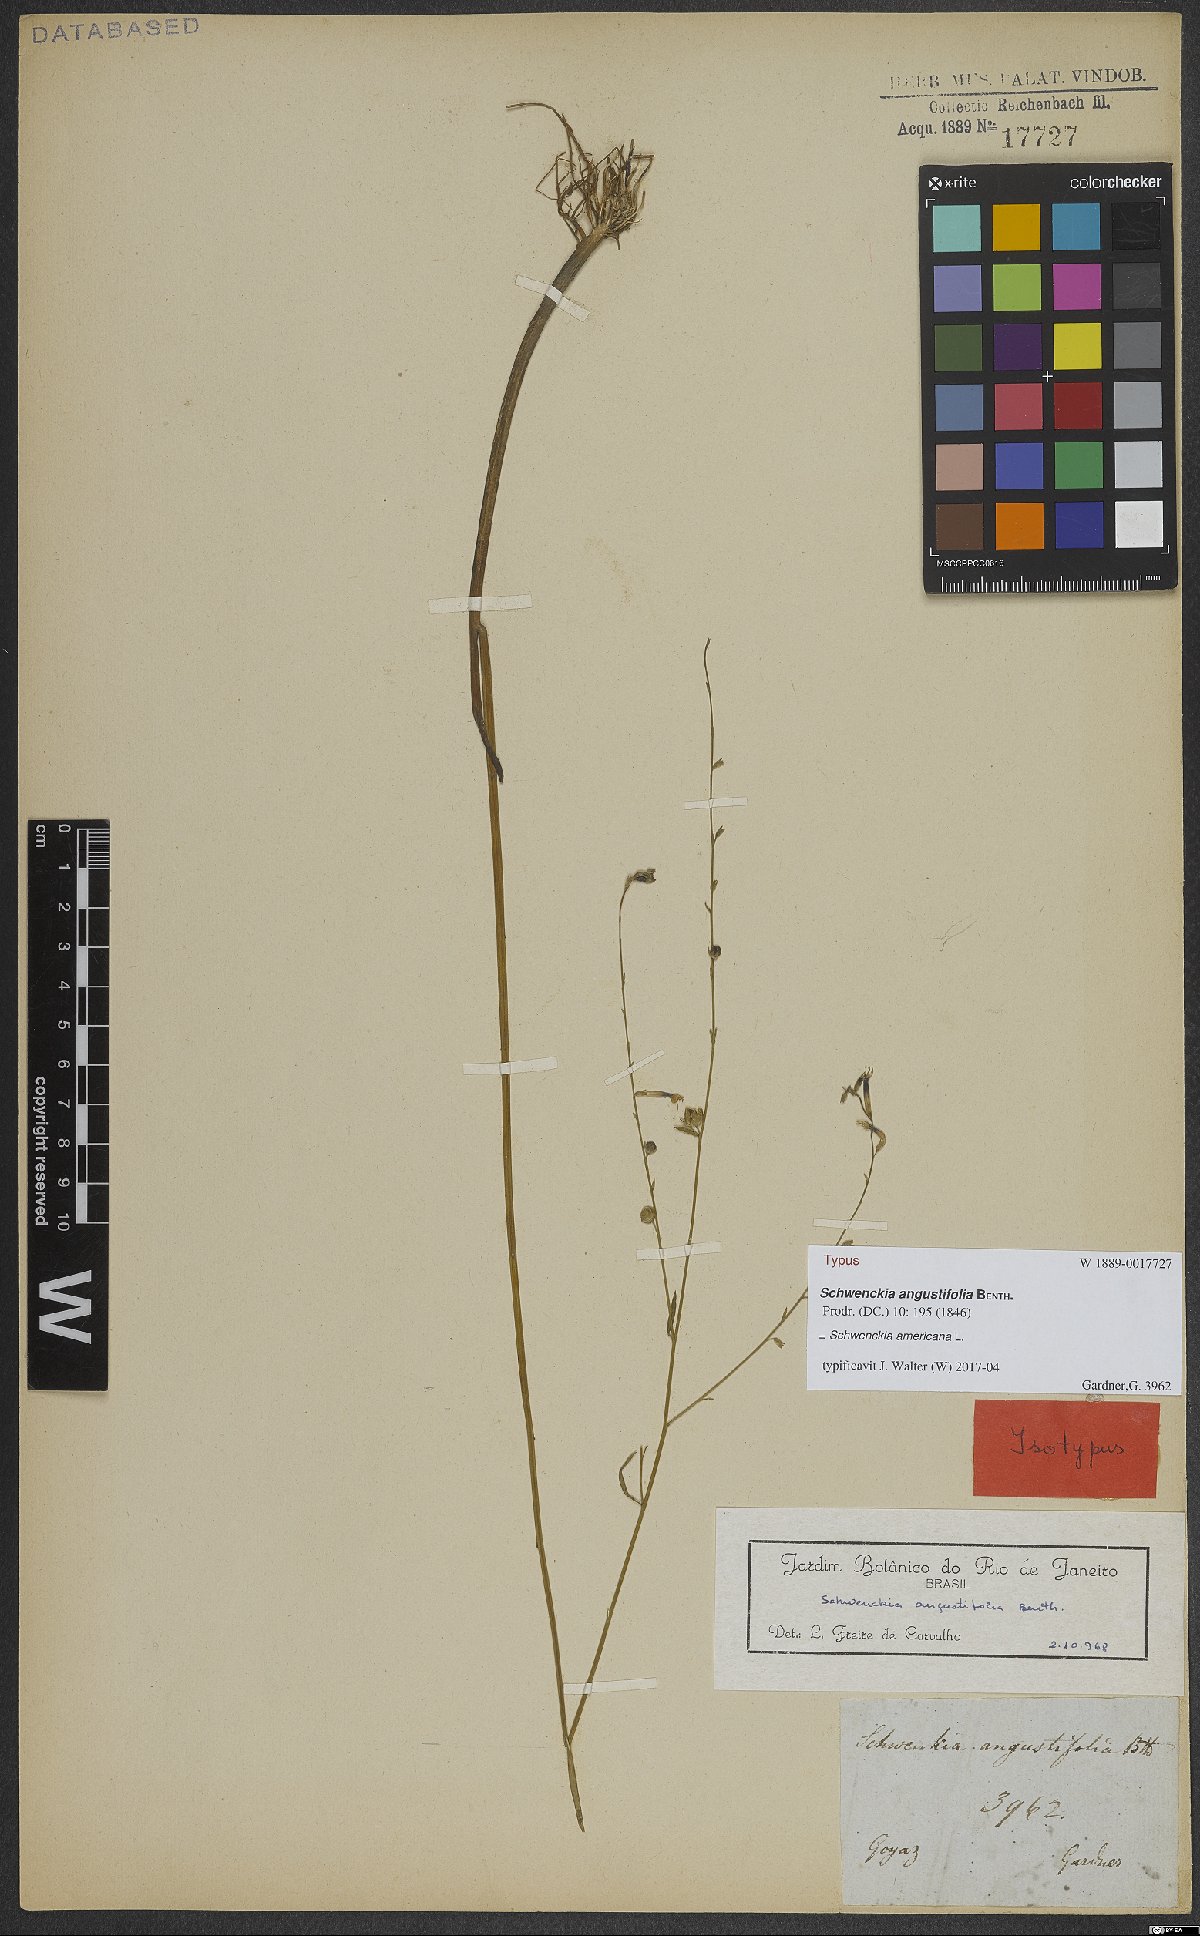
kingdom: Plantae
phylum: Tracheophyta
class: Magnoliopsida
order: Solanales
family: Solanaceae
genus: Schwenckia
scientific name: Schwenckia americana
